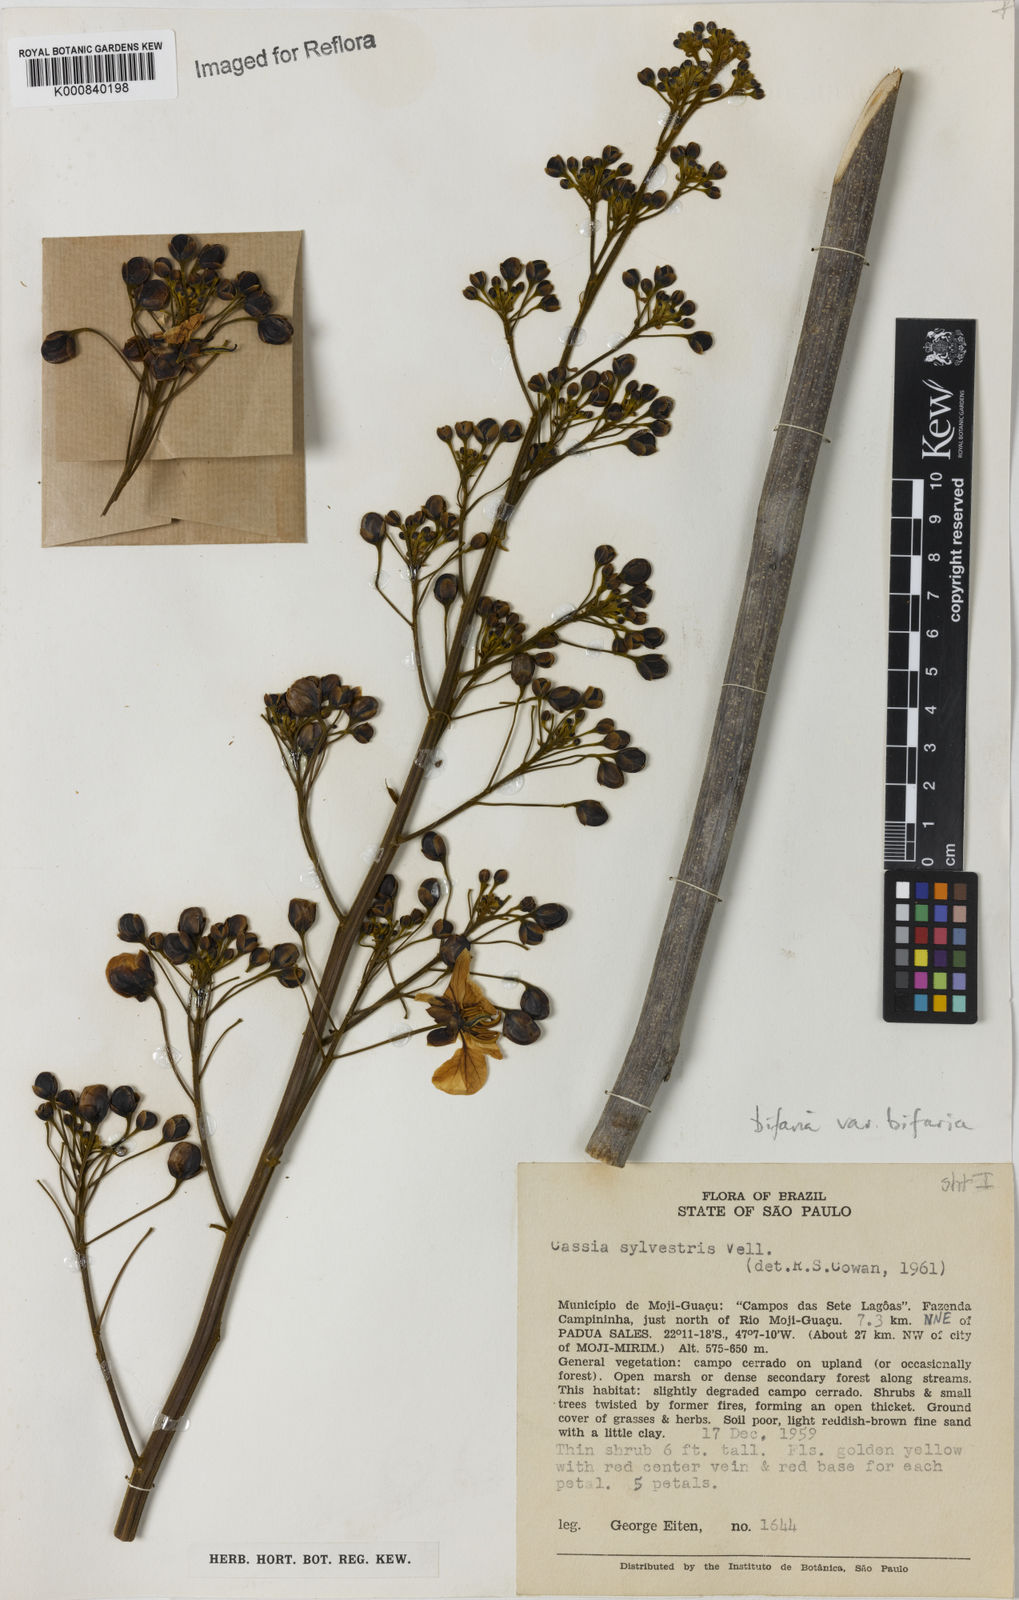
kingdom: Plantae
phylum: Tracheophyta
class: Magnoliopsida
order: Fabales
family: Fabaceae
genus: Senna
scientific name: Senna silvestris
